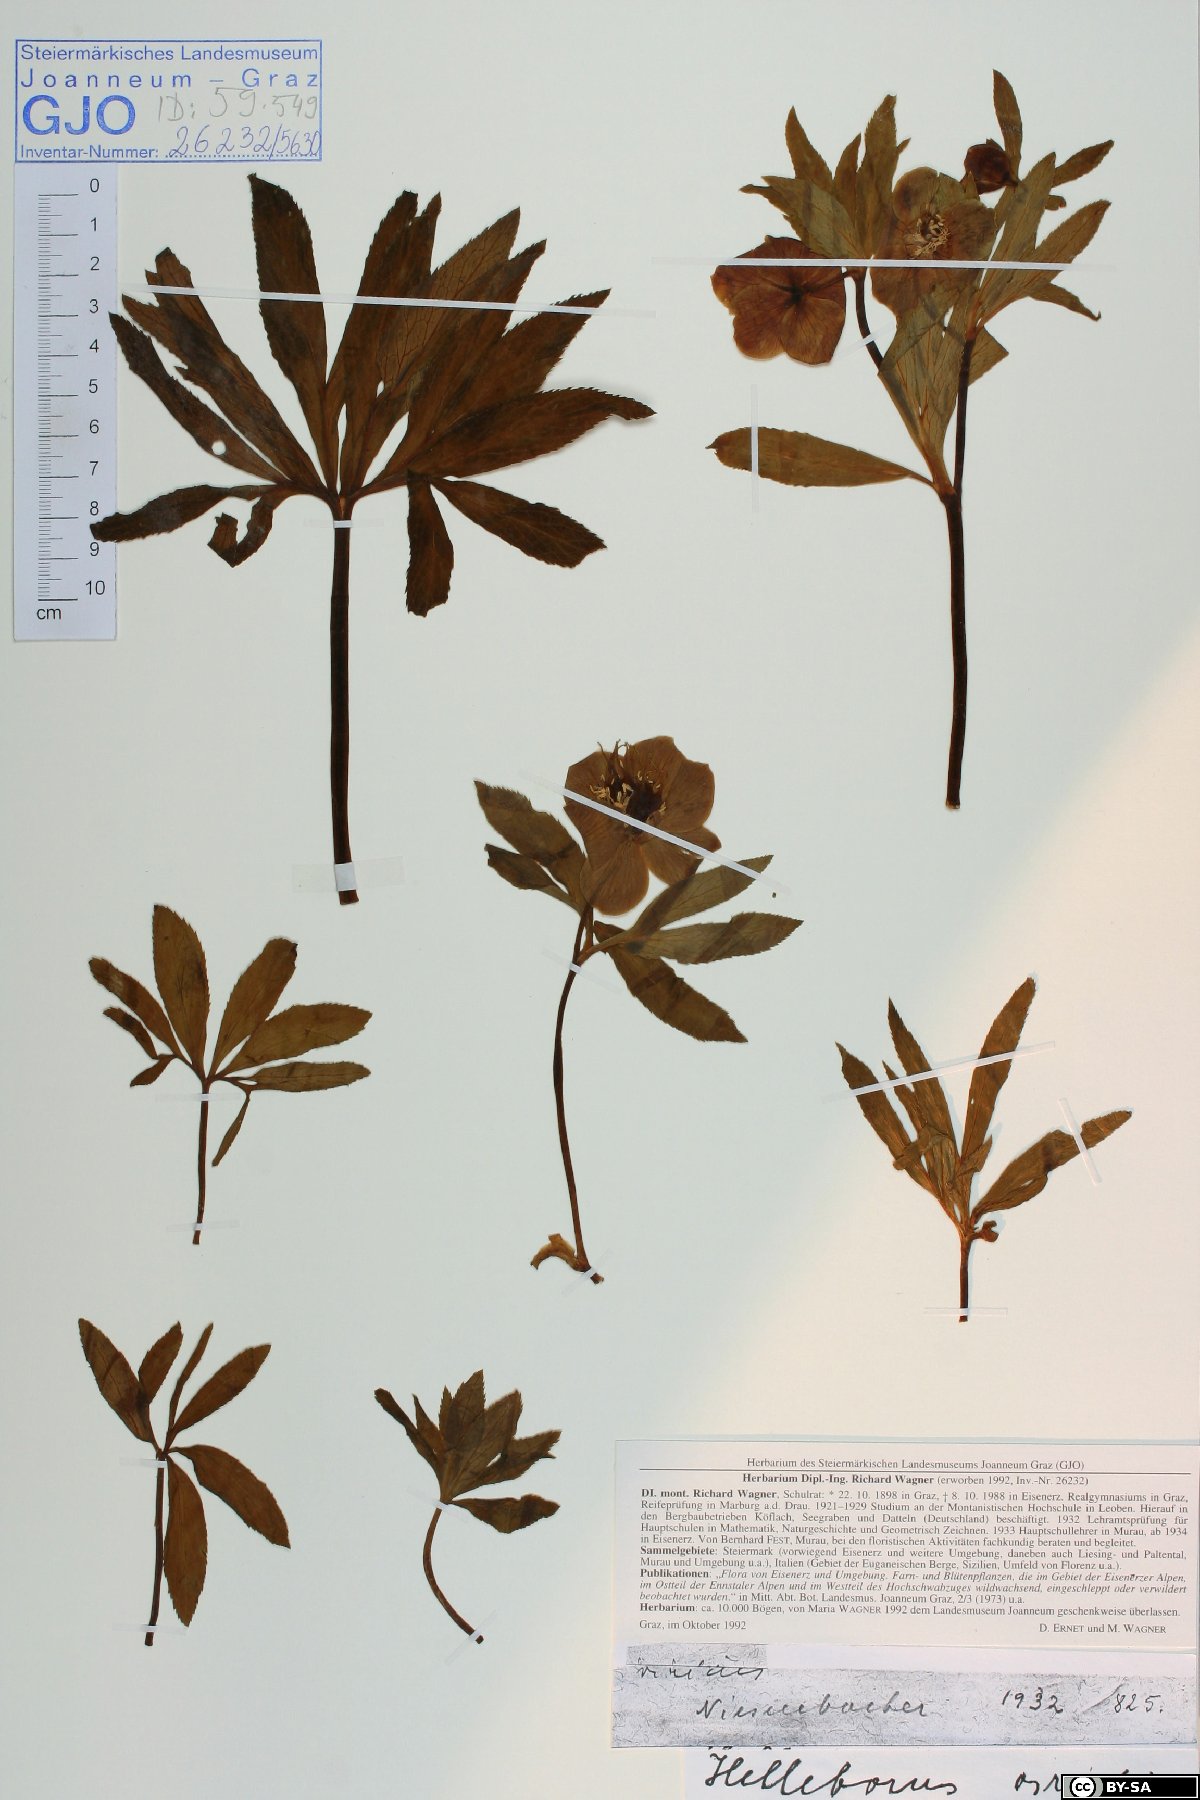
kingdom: Plantae
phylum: Tracheophyta
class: Magnoliopsida
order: Ranunculales
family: Ranunculaceae
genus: Helleborus
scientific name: Helleborus dumetorum
